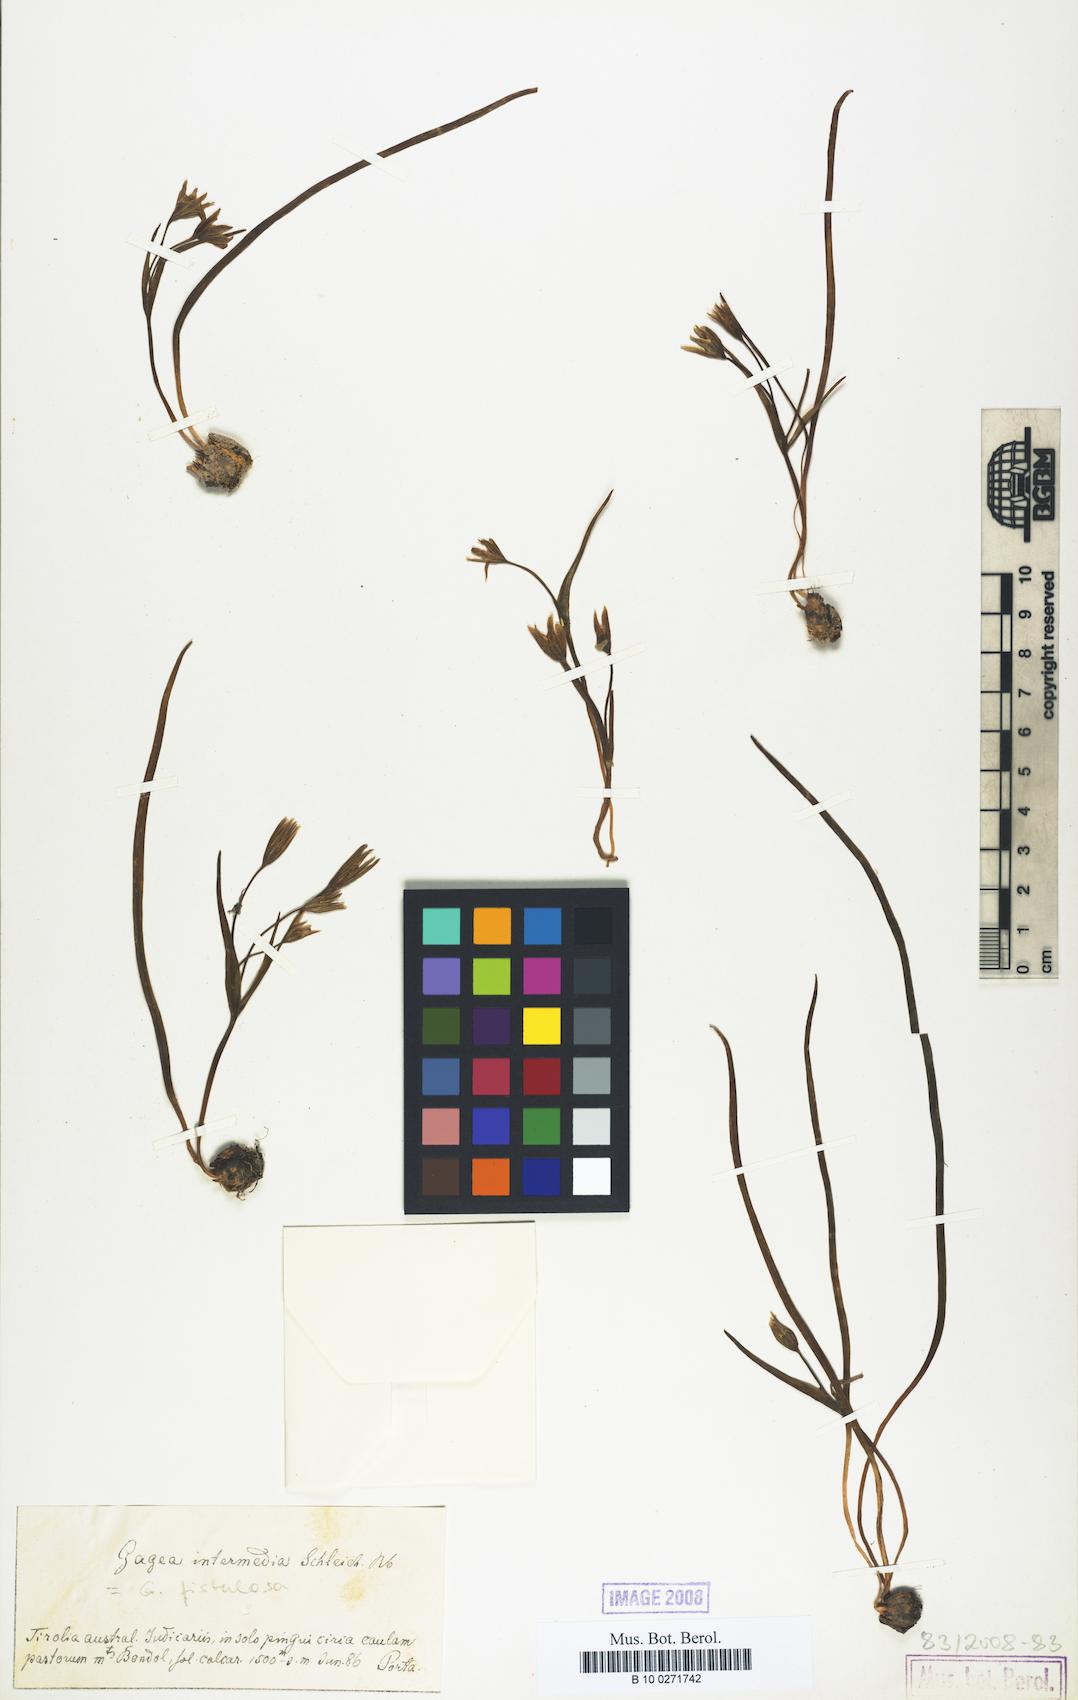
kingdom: Plantae
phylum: Tracheophyta
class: Liliopsida
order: Liliales
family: Liliaceae
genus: Gagea
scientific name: Gagea bohemica
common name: Early star-of-bethlehem
